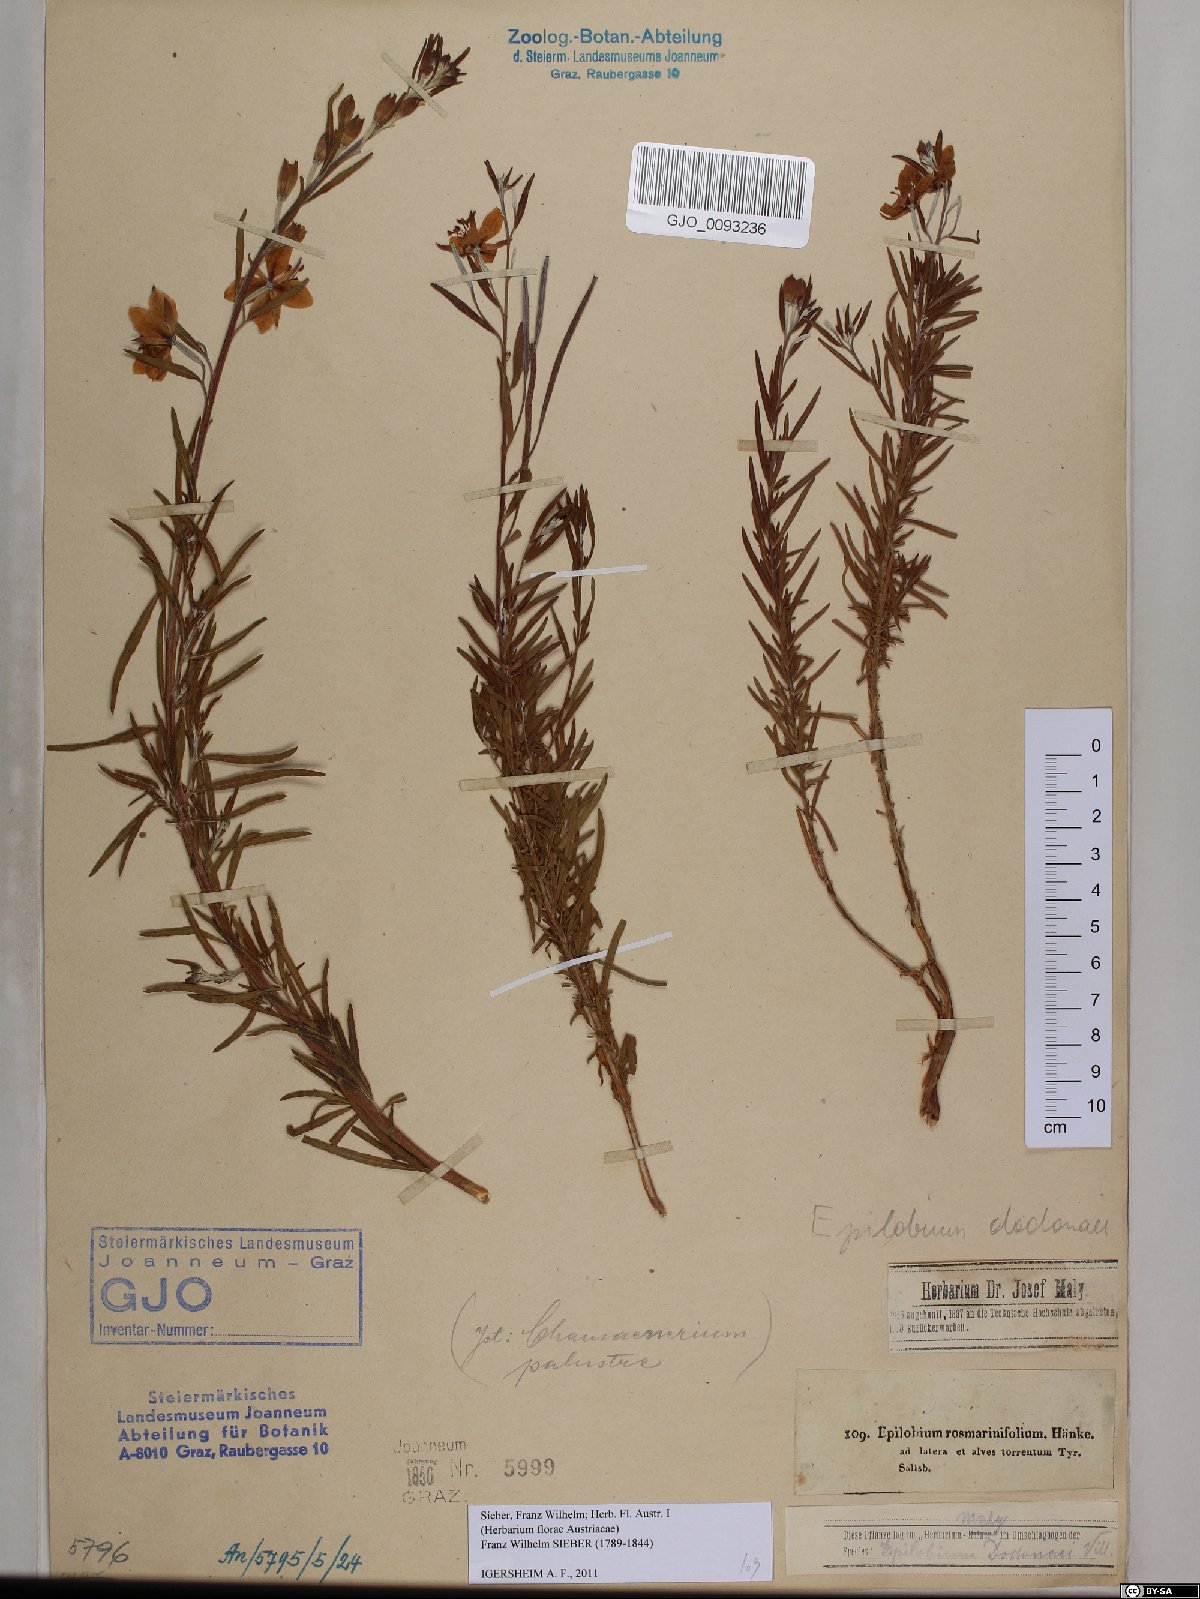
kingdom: Plantae
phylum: Tracheophyta
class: Magnoliopsida
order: Myrtales
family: Onagraceae
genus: Chamaenerion
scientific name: Chamaenerion dodonaei
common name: Rosemary-leaved willowherb
